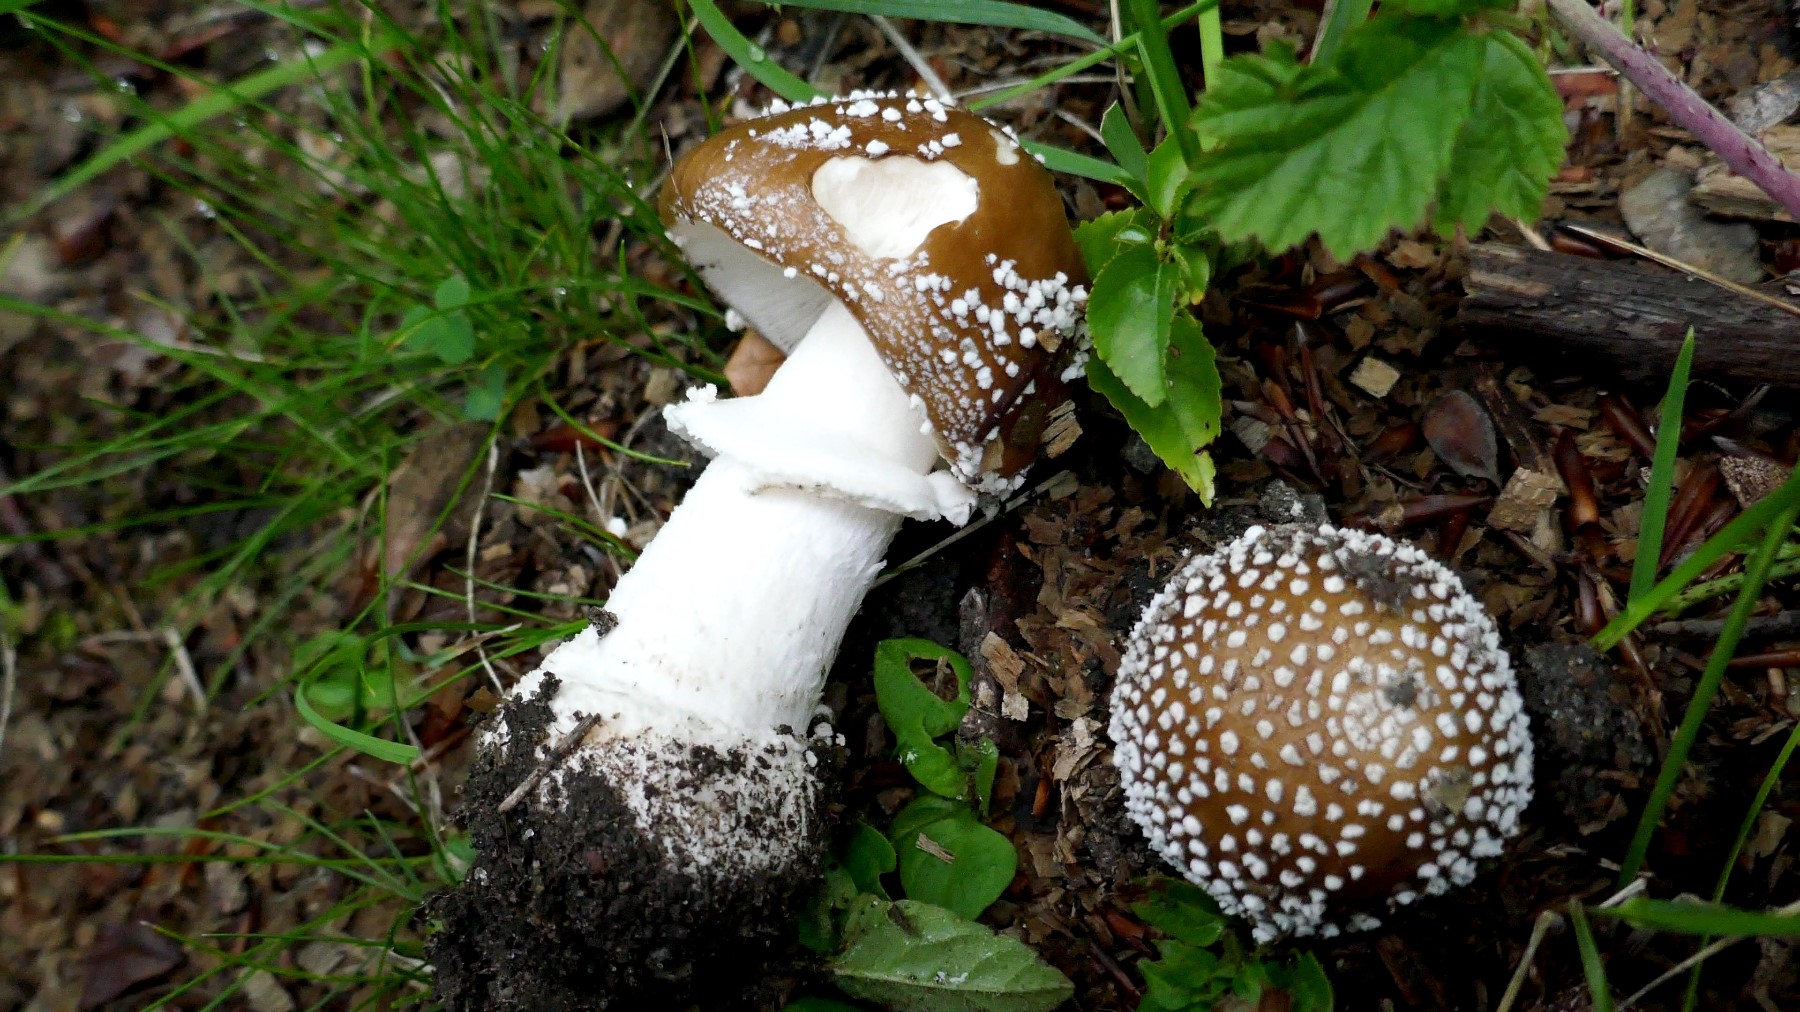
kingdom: Fungi
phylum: Basidiomycota
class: Agaricomycetes
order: Agaricales
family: Amanitaceae
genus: Amanita
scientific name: Amanita pantherina
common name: panter-fluesvamp
